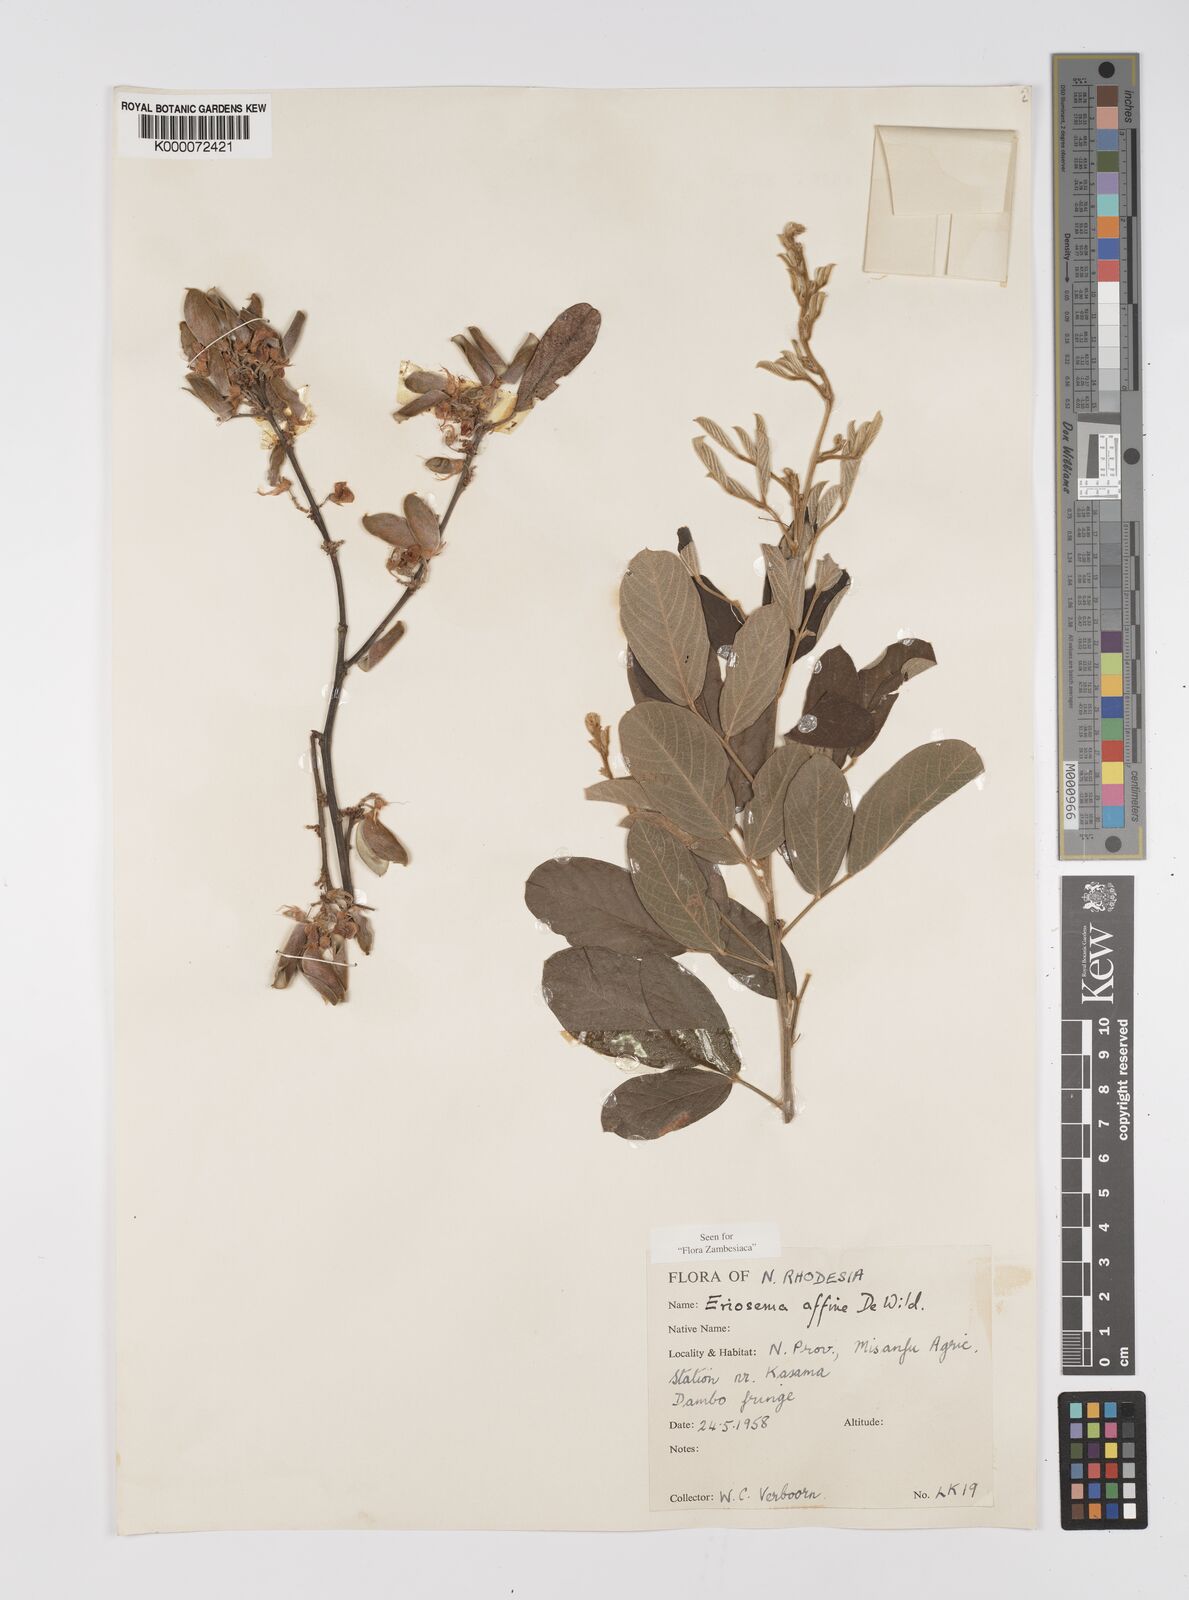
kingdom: Plantae
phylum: Tracheophyta
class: Magnoliopsida
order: Fabales
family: Fabaceae
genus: Eriosema
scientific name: Eriosema affine
